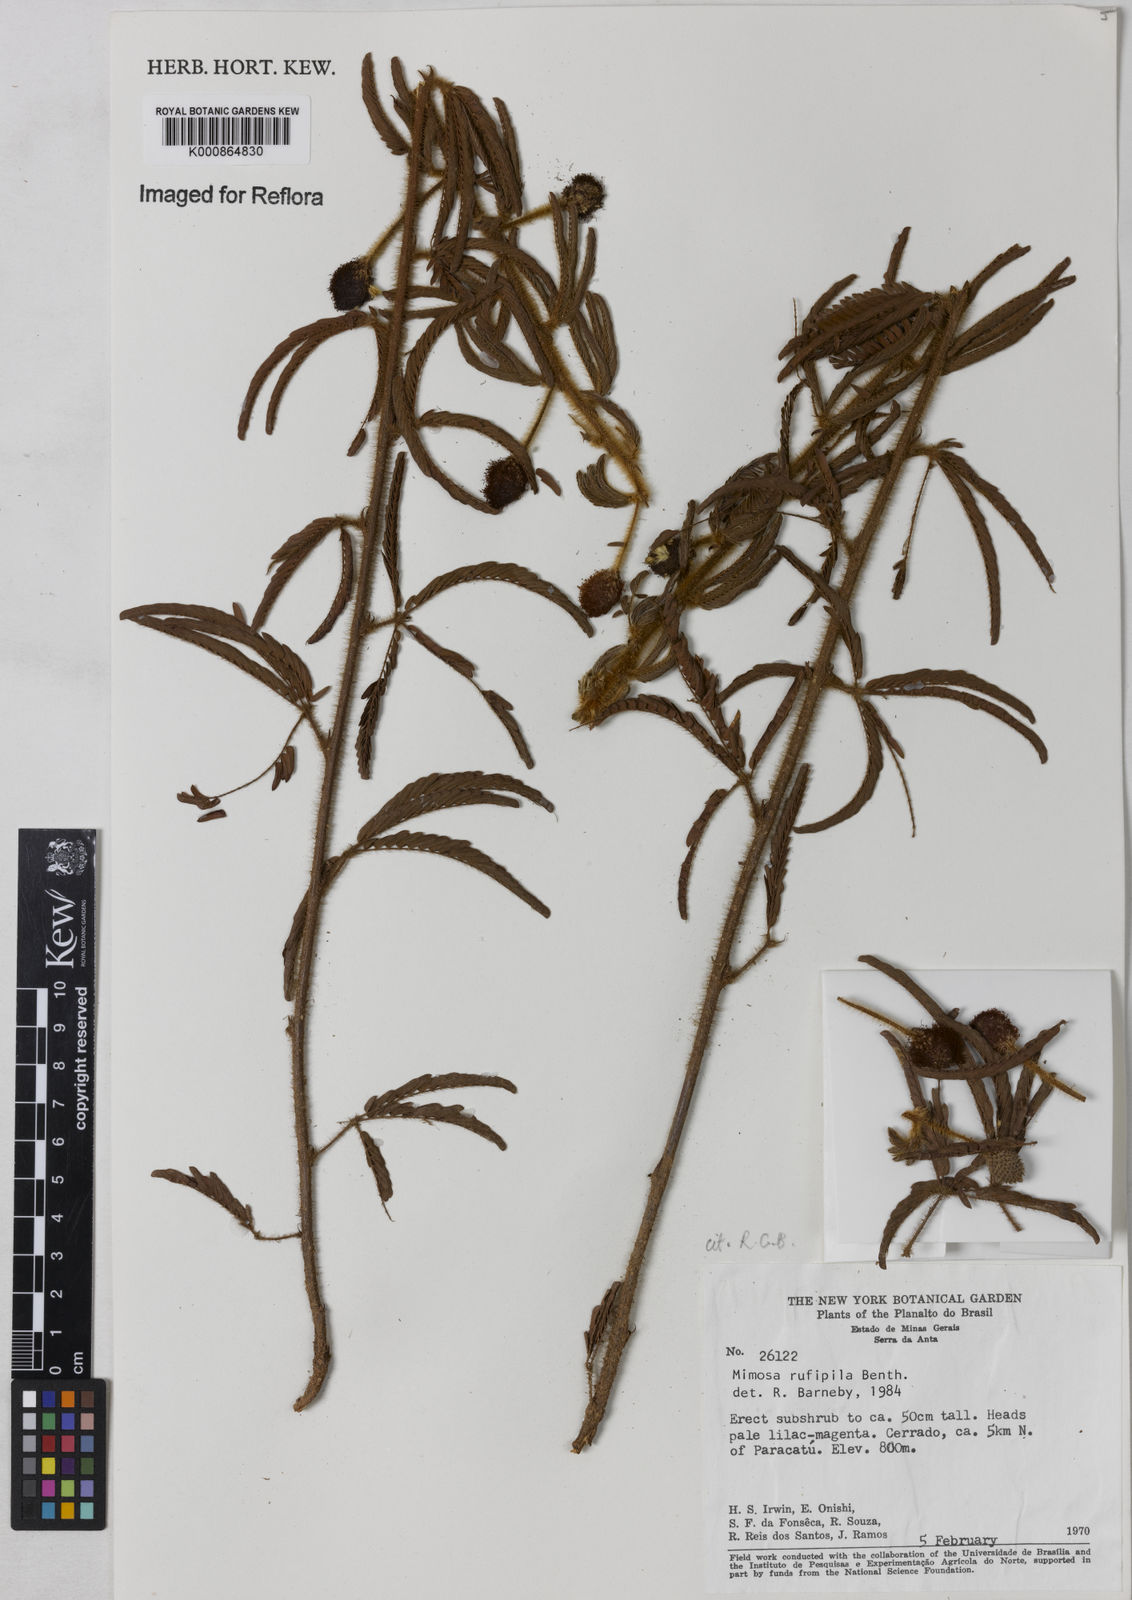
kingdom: Plantae
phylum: Tracheophyta
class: Magnoliopsida
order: Fabales
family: Fabaceae
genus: Mimosa
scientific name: Mimosa rufipila
